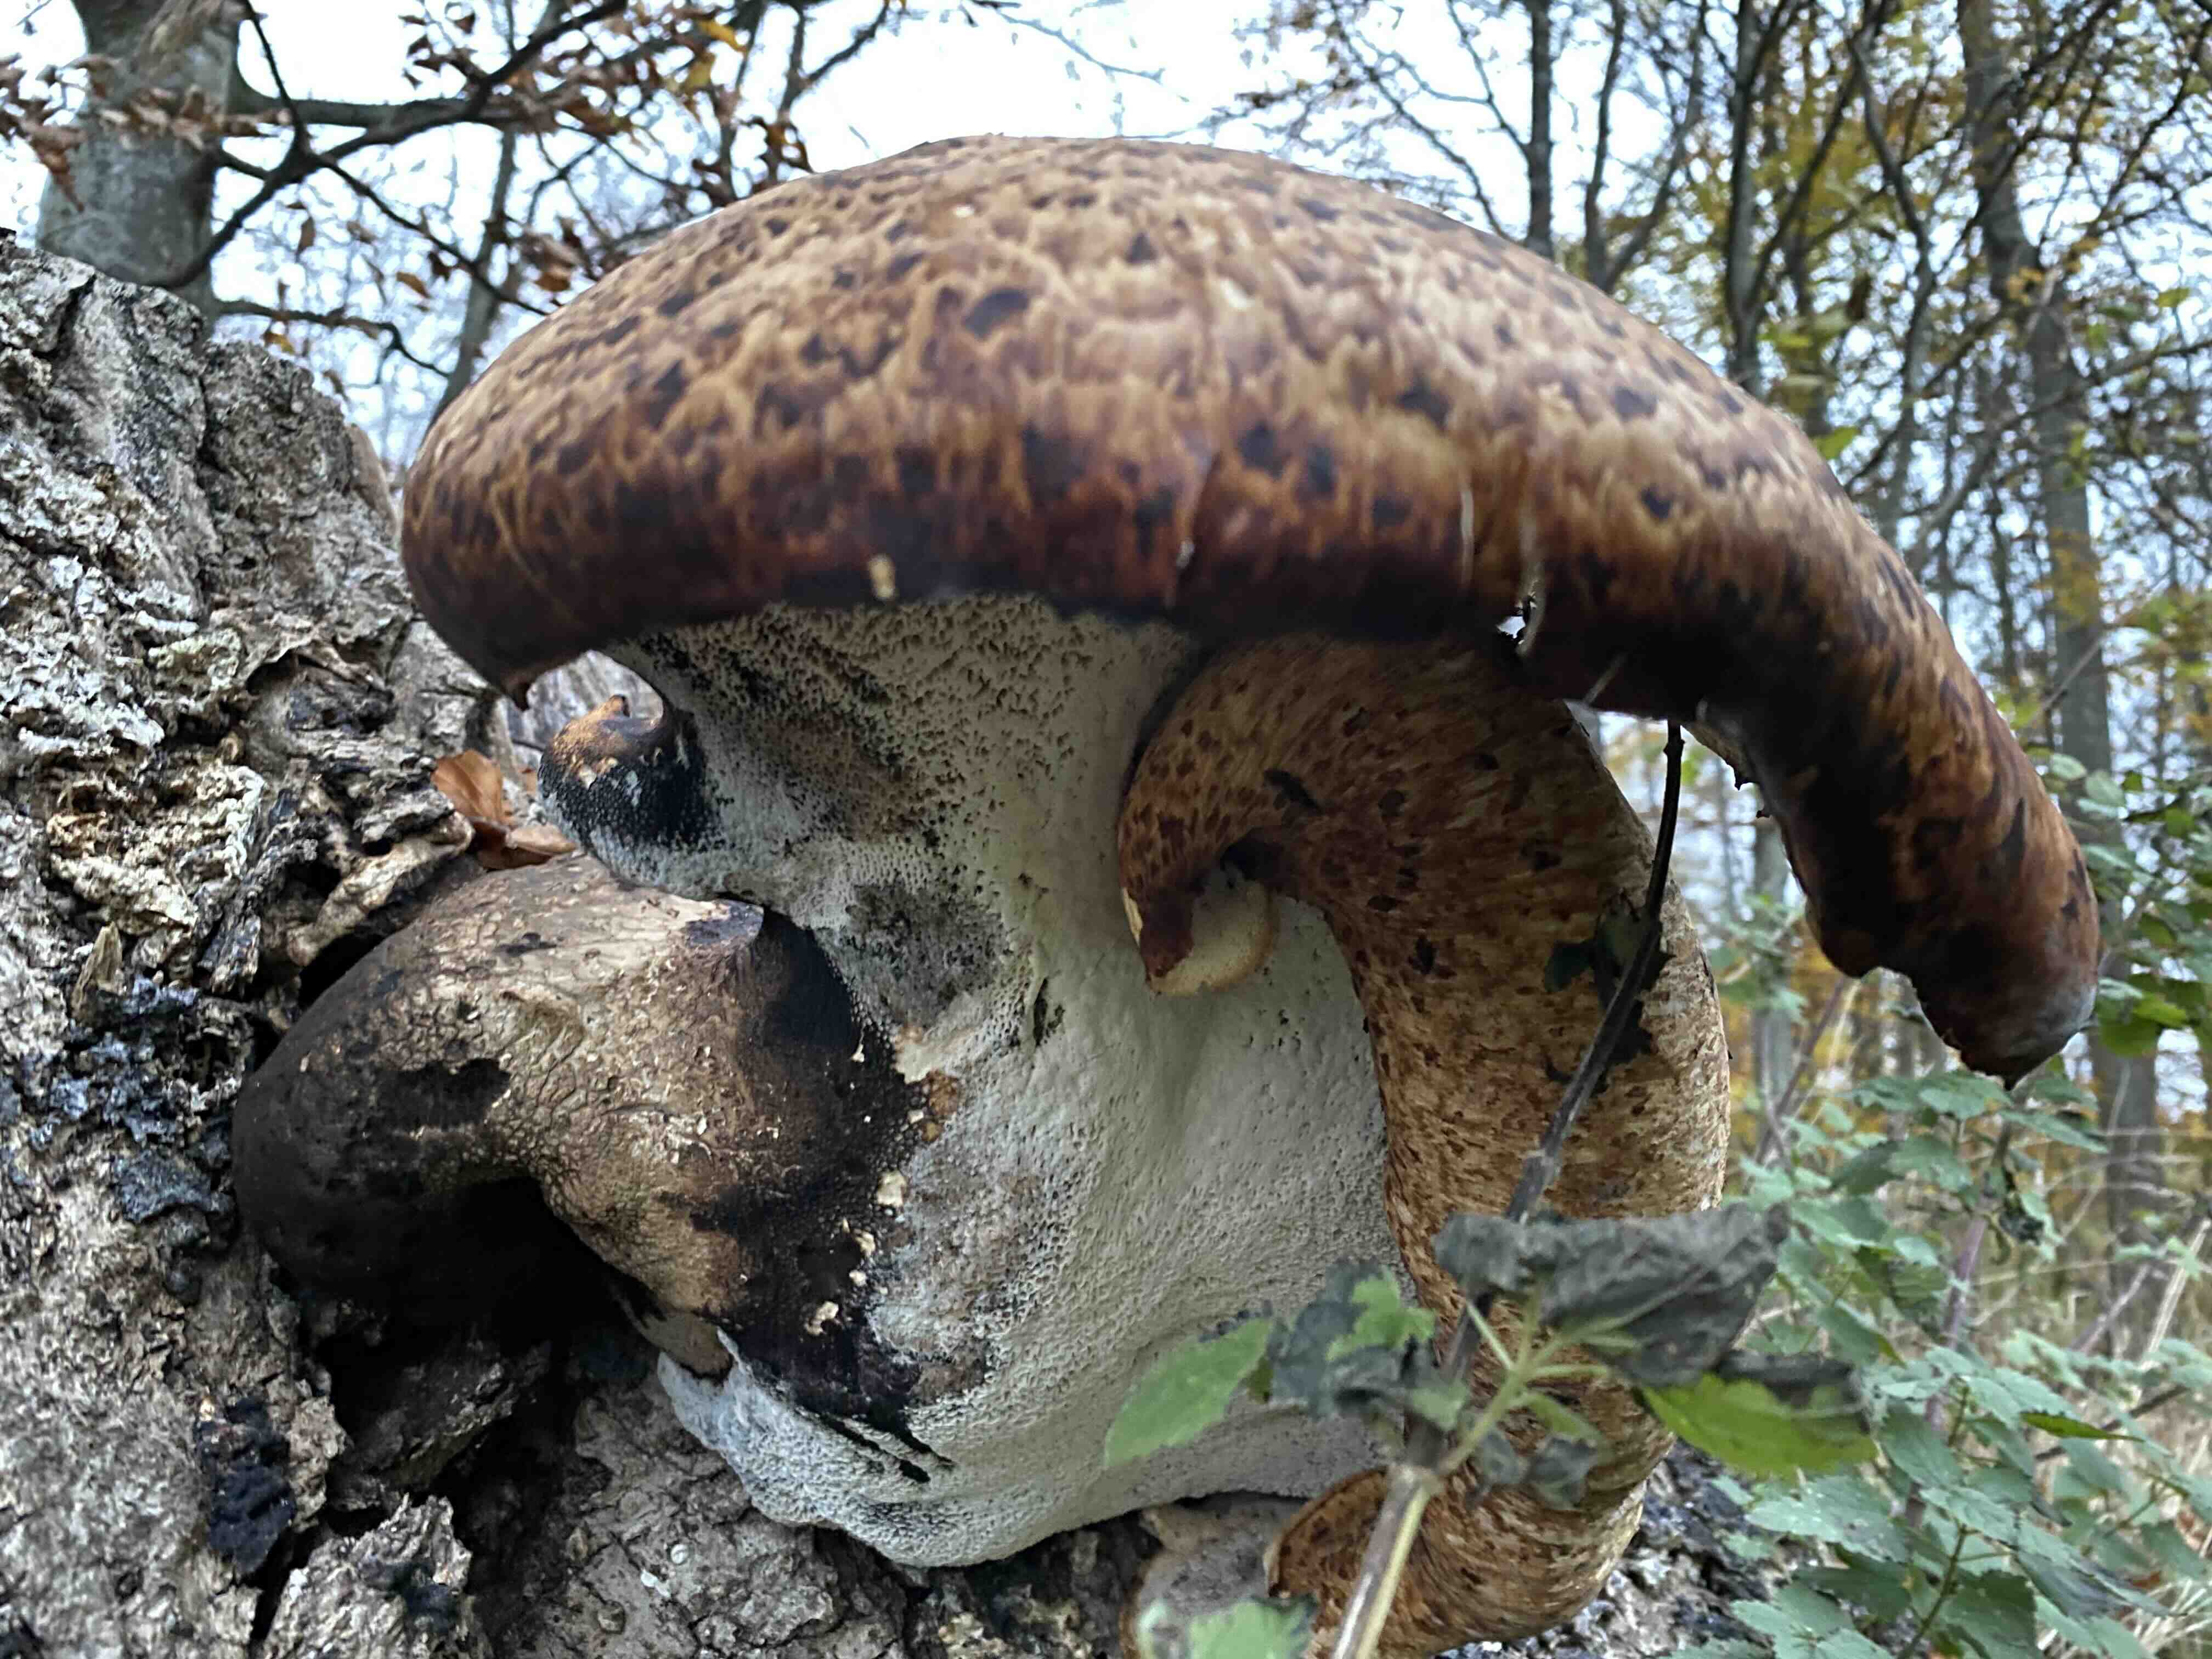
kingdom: Fungi
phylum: Basidiomycota
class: Agaricomycetes
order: Polyporales
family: Polyporaceae
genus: Cerioporus
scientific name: Cerioporus squamosus
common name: skællet stilkporesvamp
